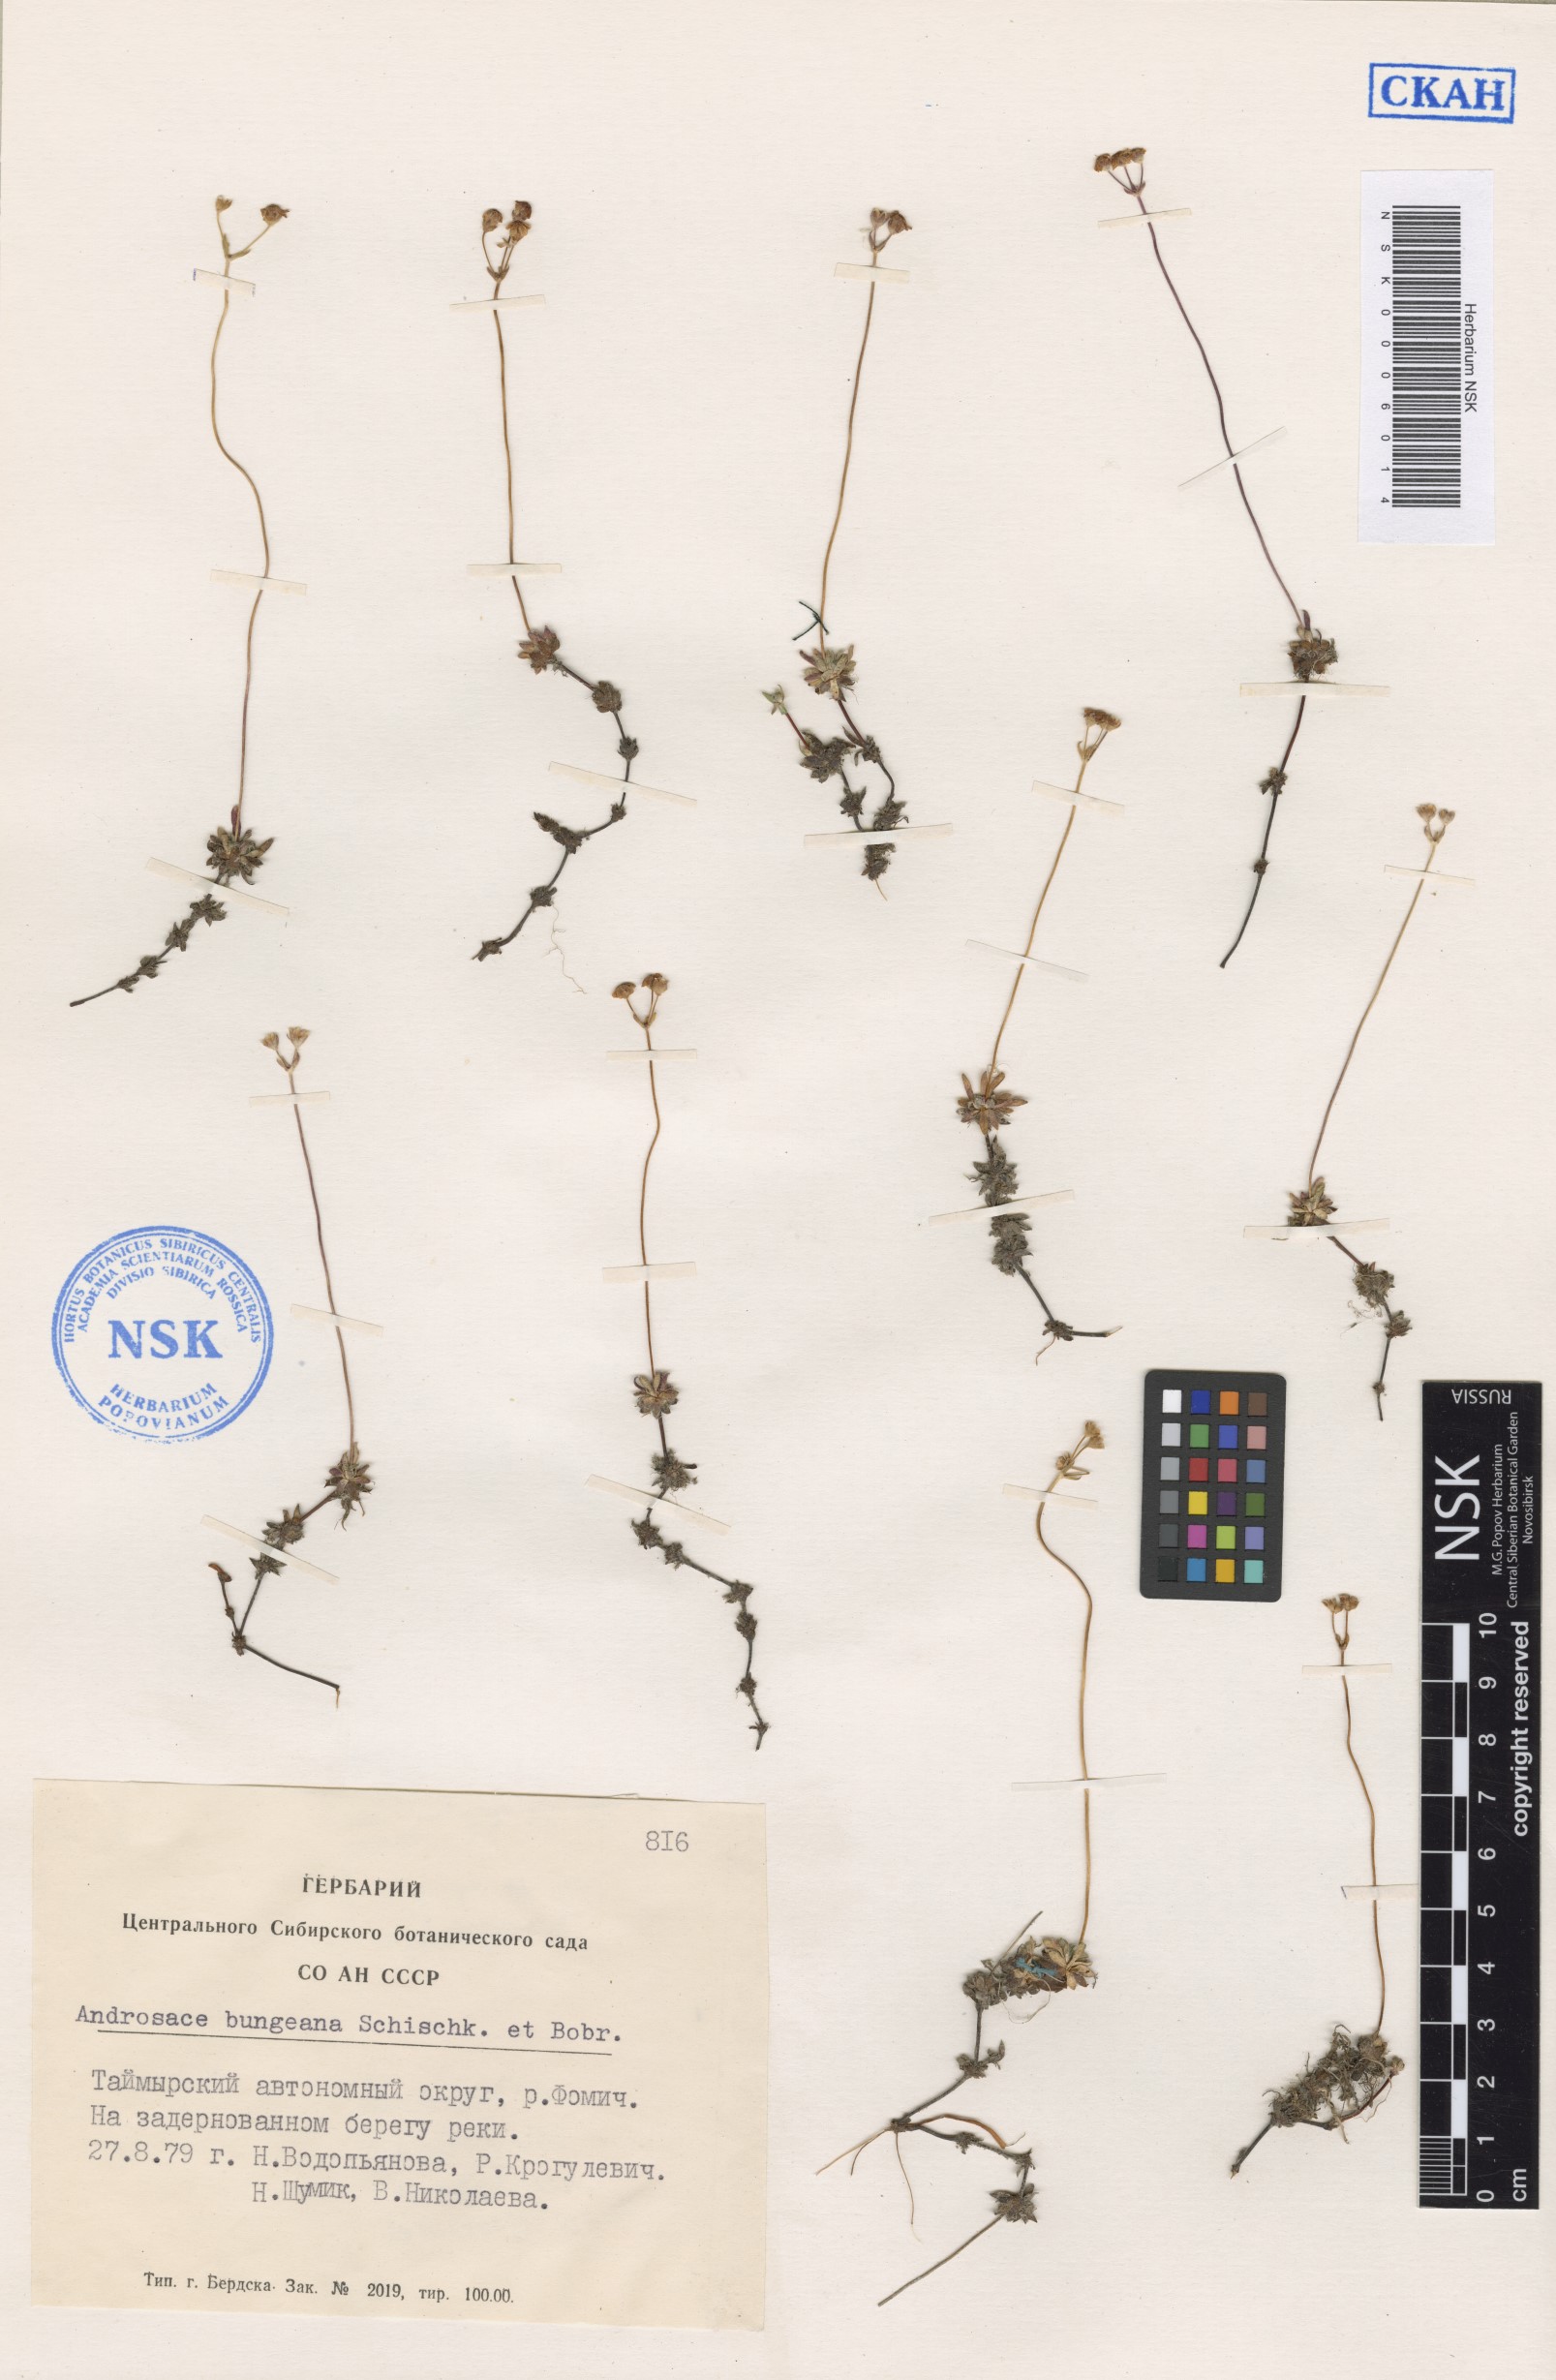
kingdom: Plantae
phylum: Tracheophyta
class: Magnoliopsida
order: Ericales
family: Primulaceae
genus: Androsace
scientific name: Androsace bungeana
